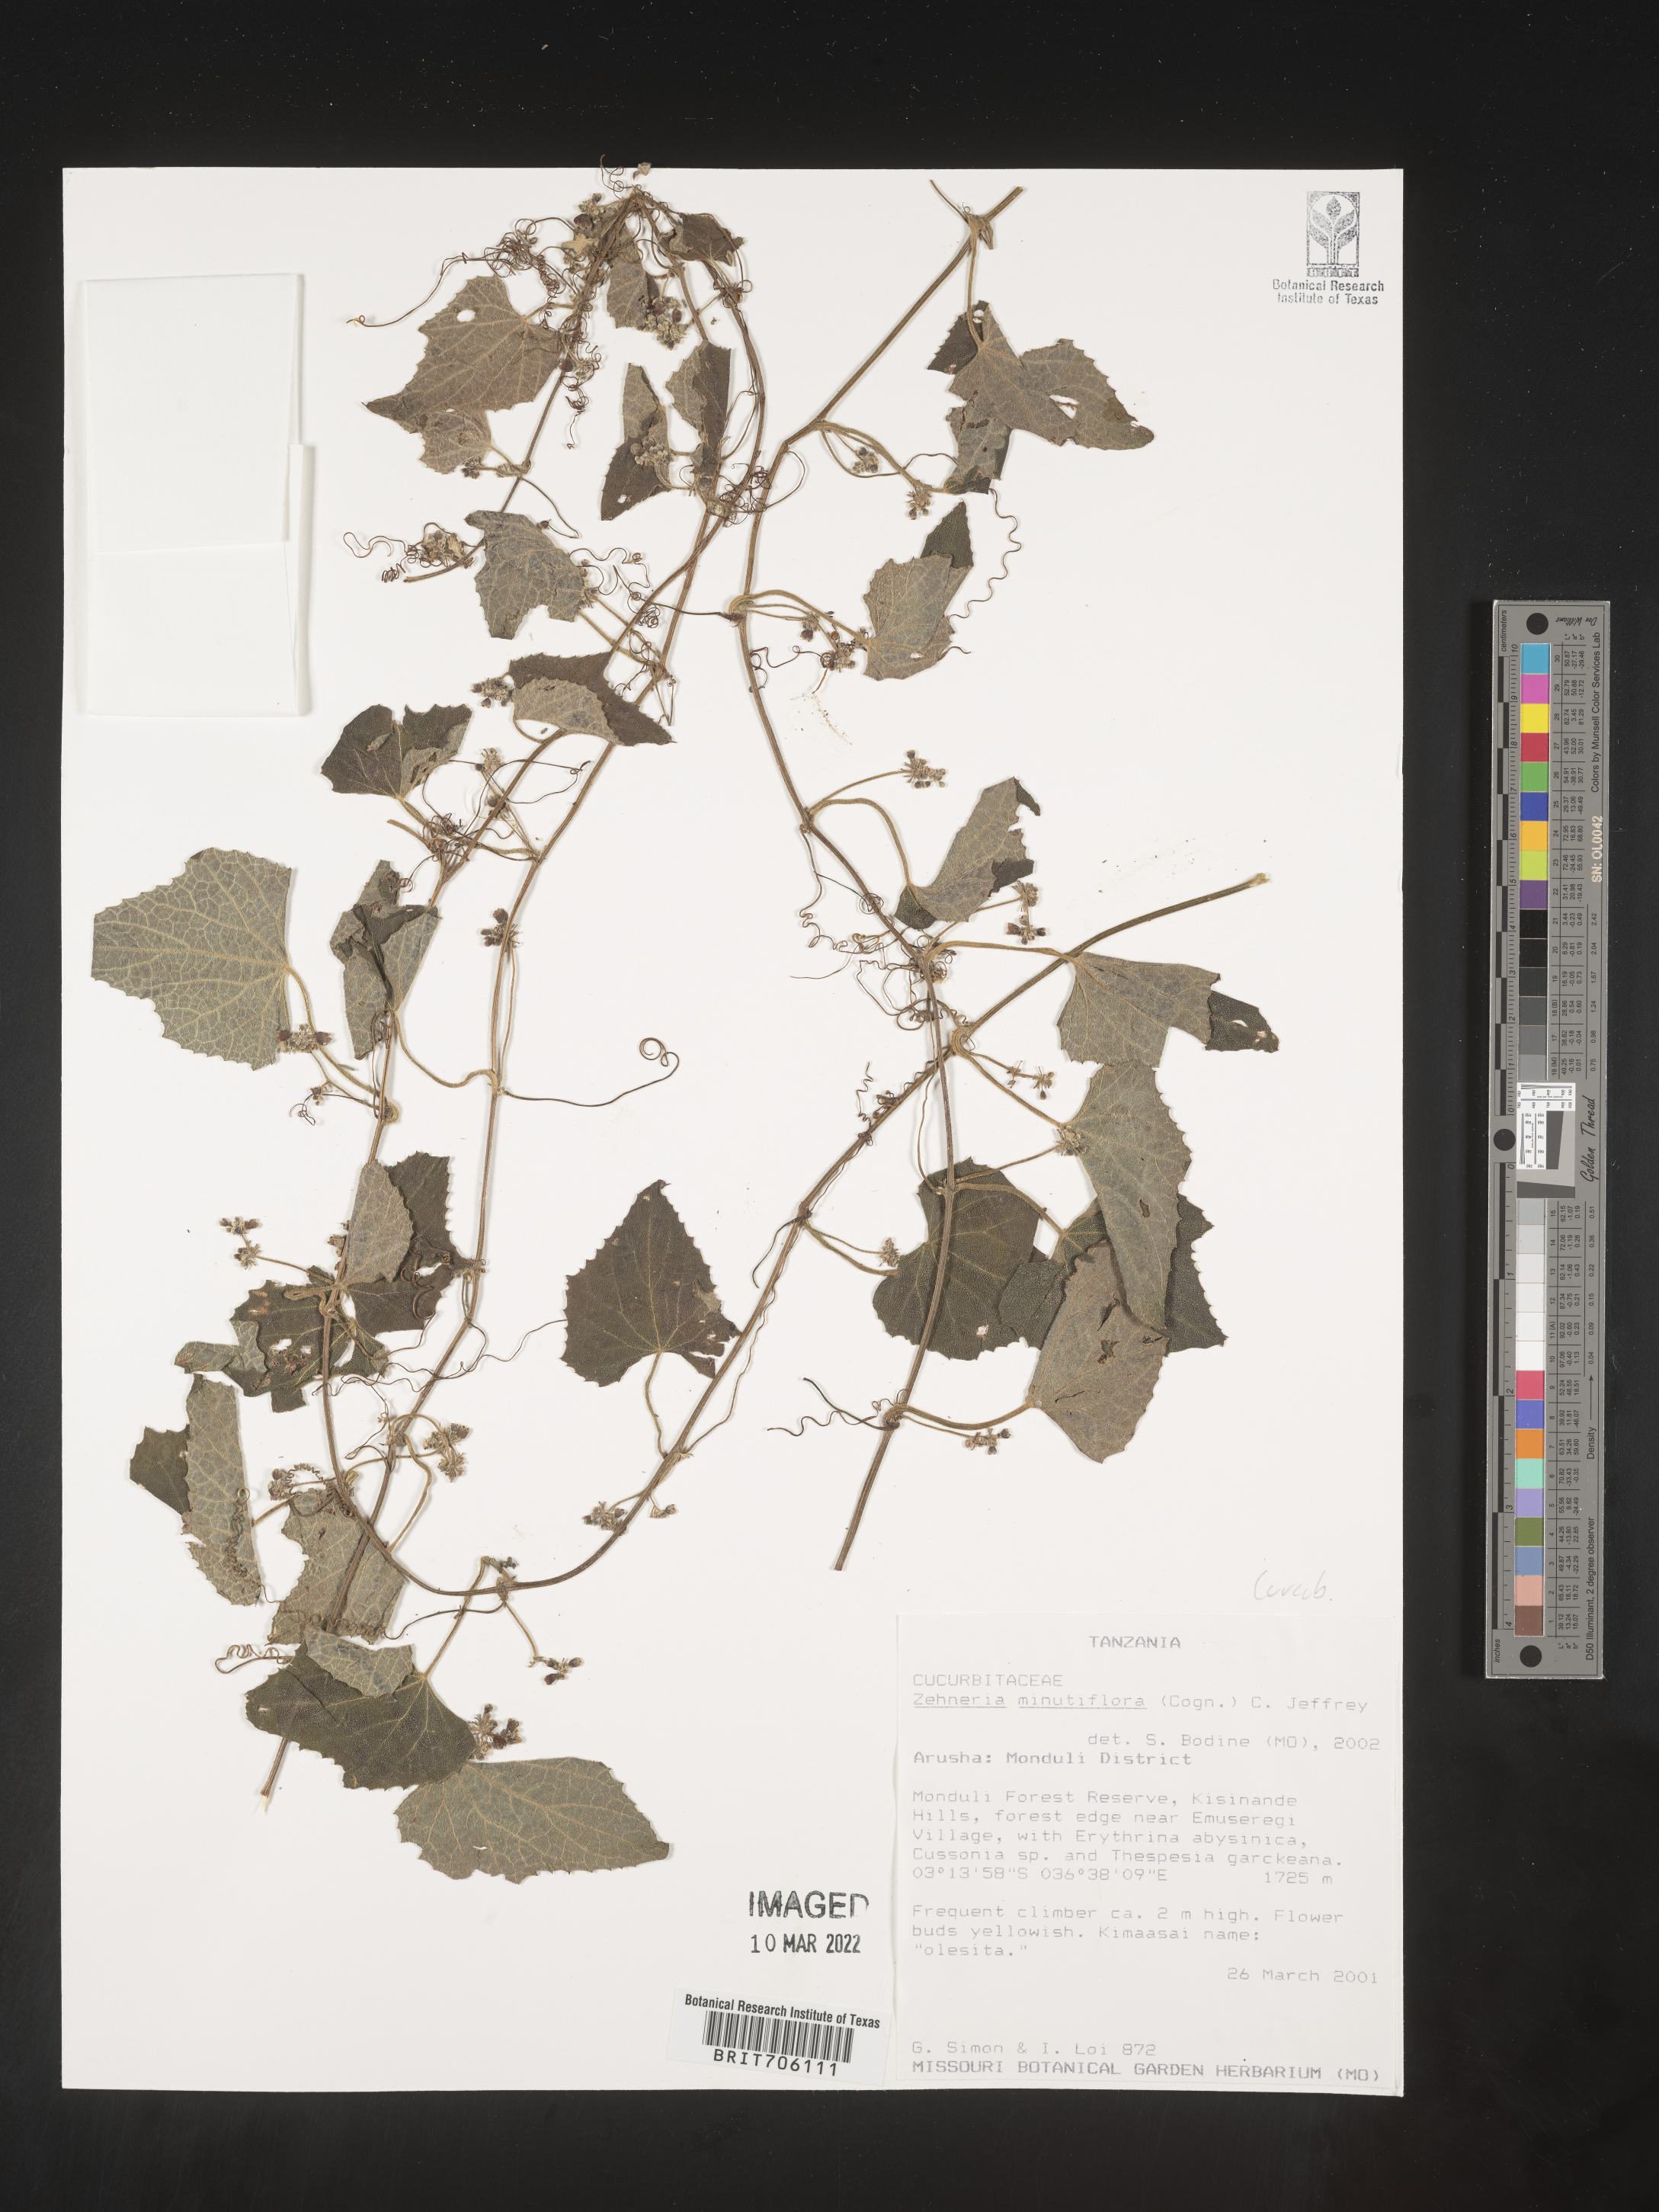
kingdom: Plantae
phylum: Tracheophyta
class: Magnoliopsida
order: Cucurbitales
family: Cucurbitaceae
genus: Zehneria
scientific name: Zehneria
